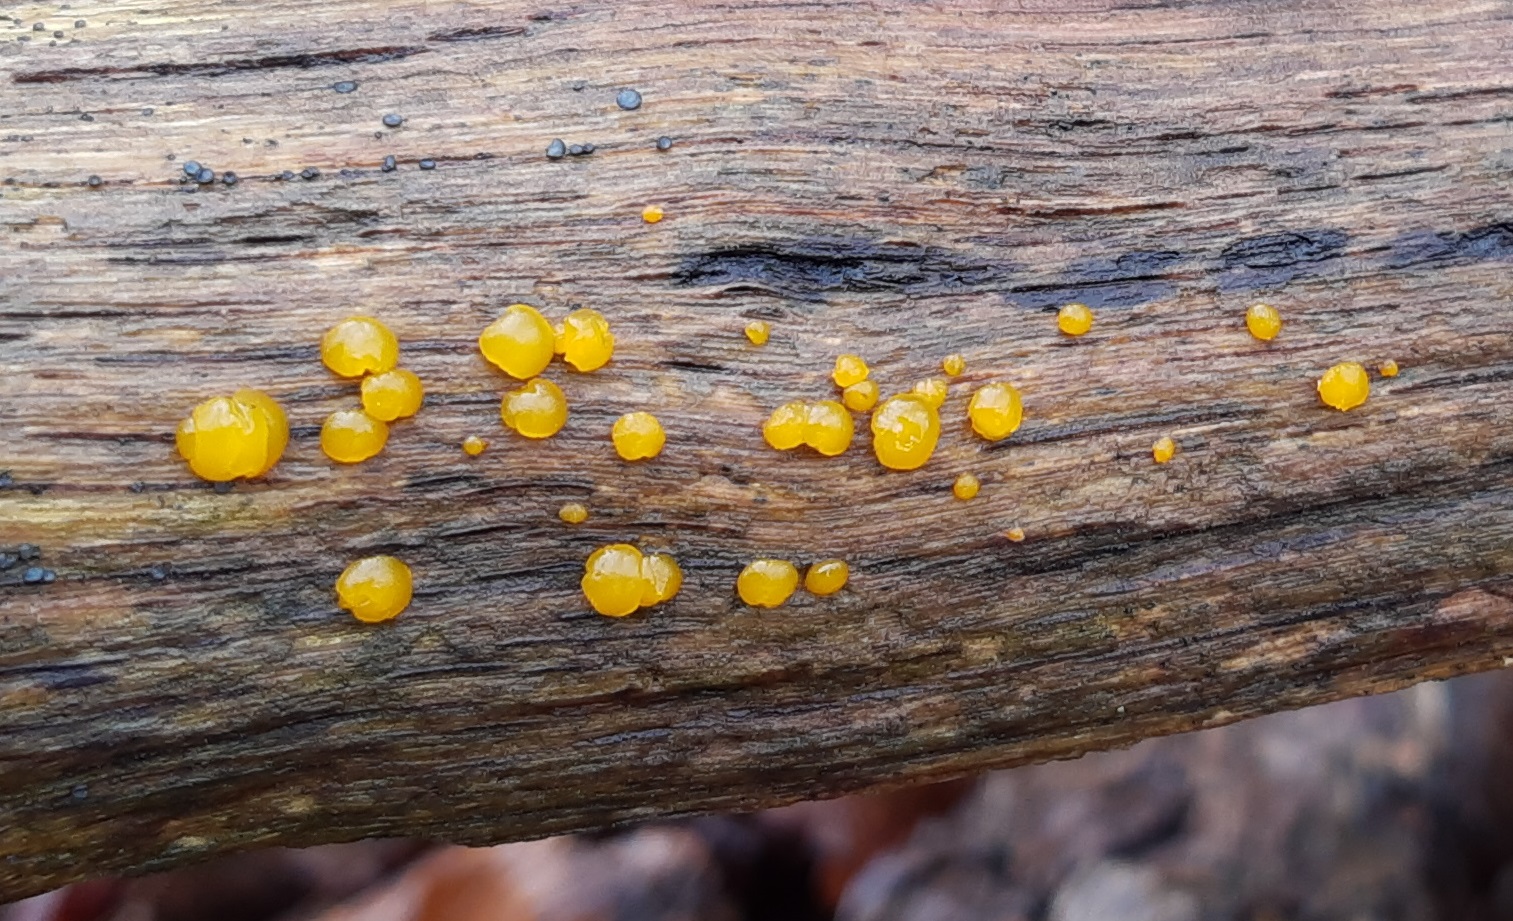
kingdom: Fungi
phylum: Basidiomycota
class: Dacrymycetes
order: Dacrymycetales
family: Dacrymycetaceae
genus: Dacrymyces
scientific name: Dacrymyces
